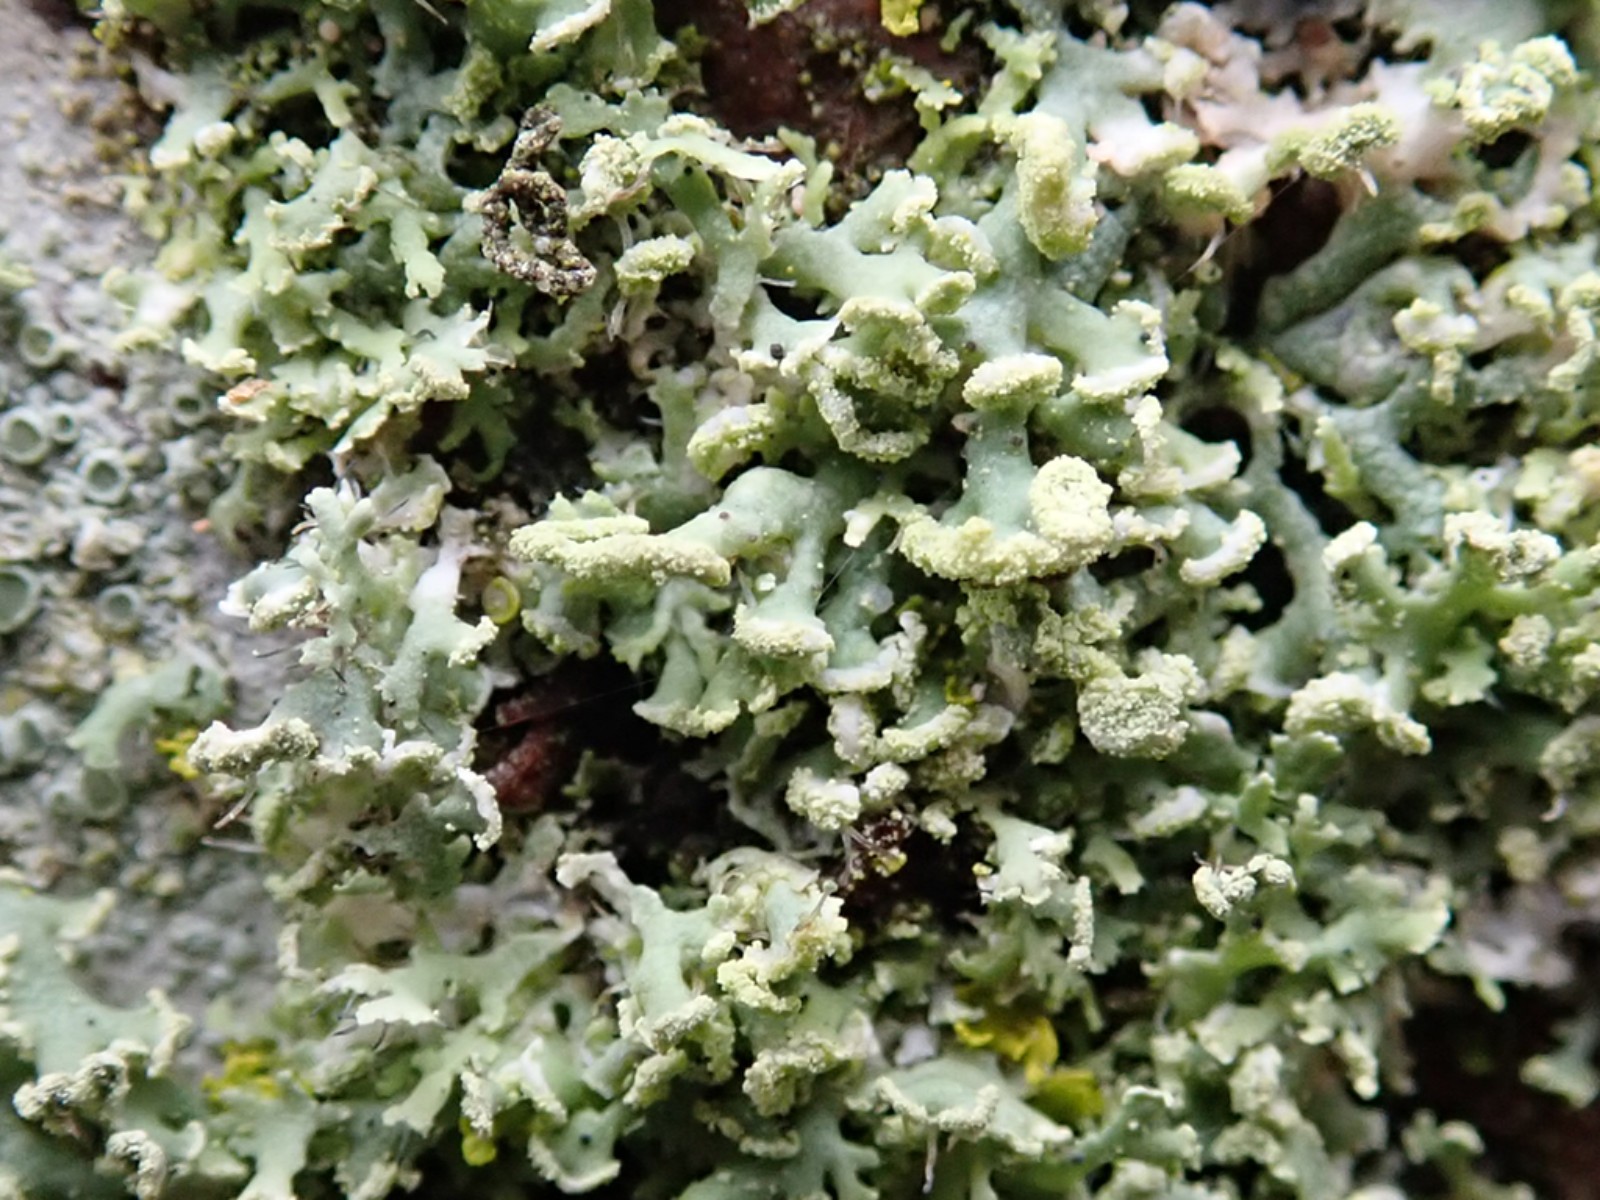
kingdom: Fungi
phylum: Ascomycota
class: Lecanoromycetes
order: Caliciales
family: Physciaceae
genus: Physcia
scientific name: Physcia tenella
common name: spæd rosetlav
